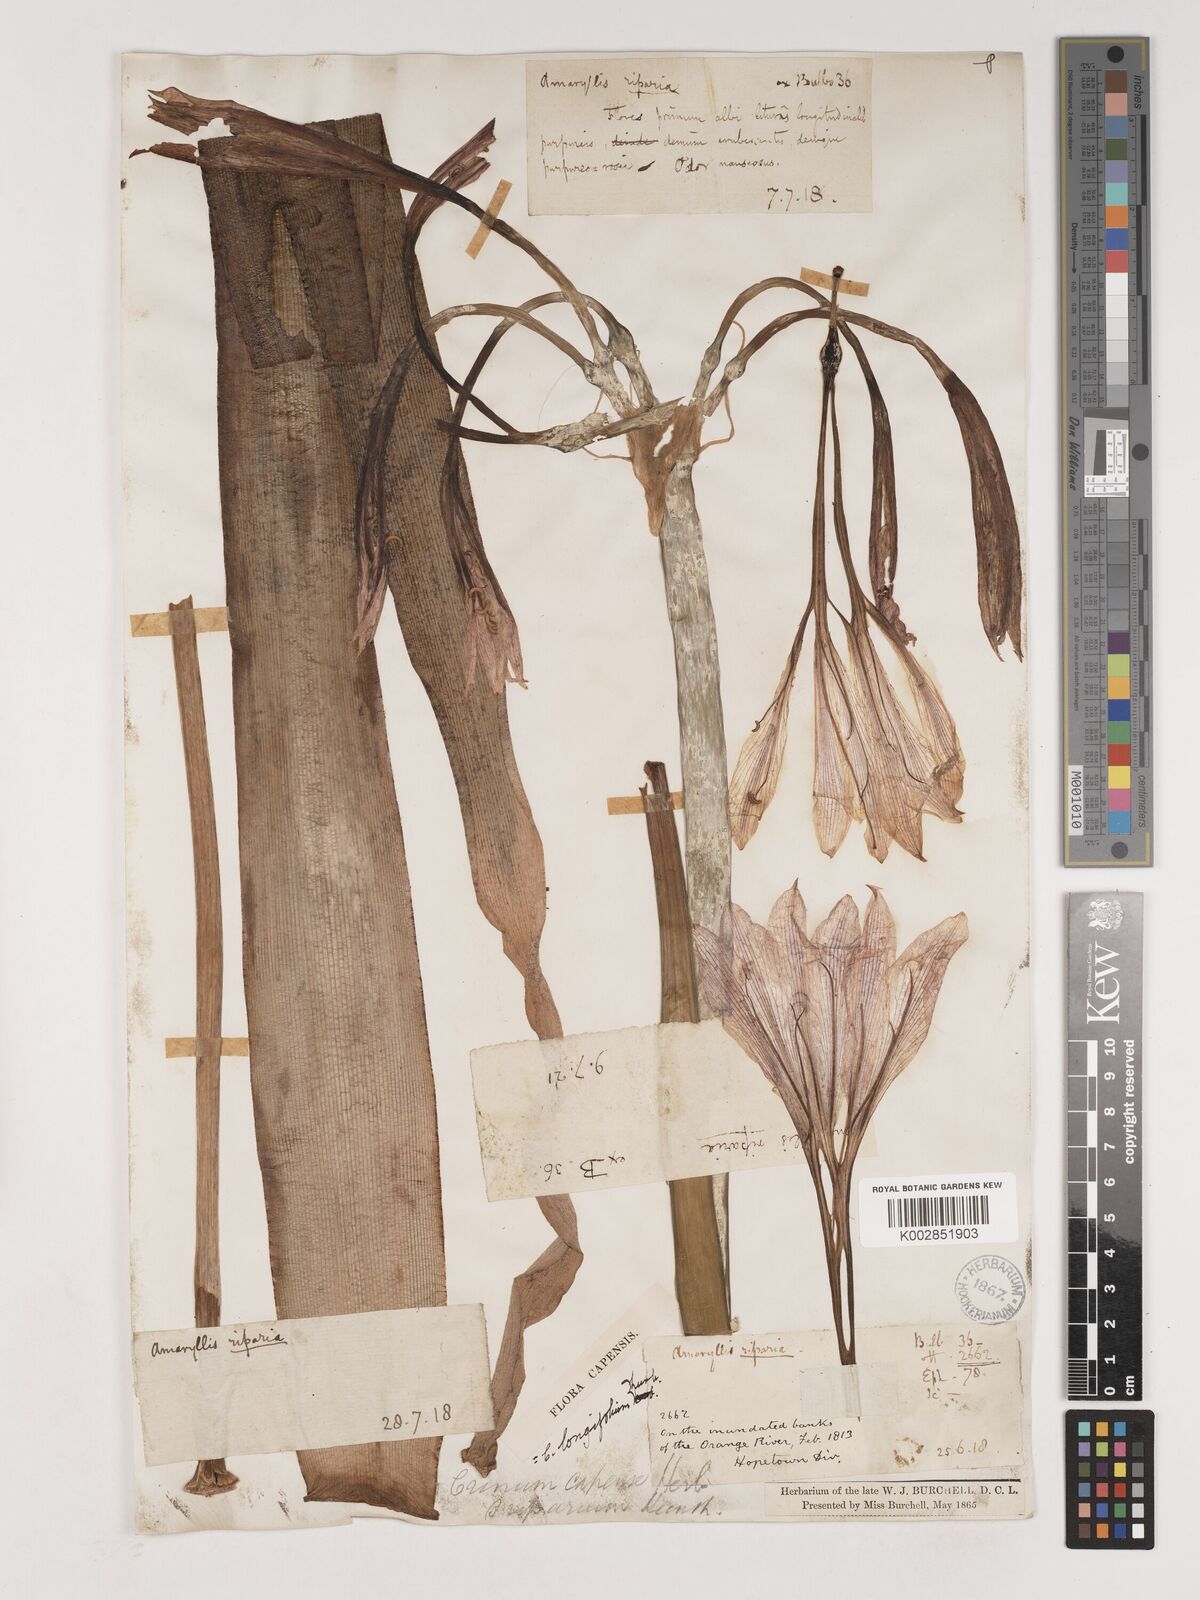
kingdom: Plantae
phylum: Tracheophyta
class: Liliopsida
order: Asparagales
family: Amaryllidaceae
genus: Crinum
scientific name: Crinum bulbispermum
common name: Hardy swamplily
